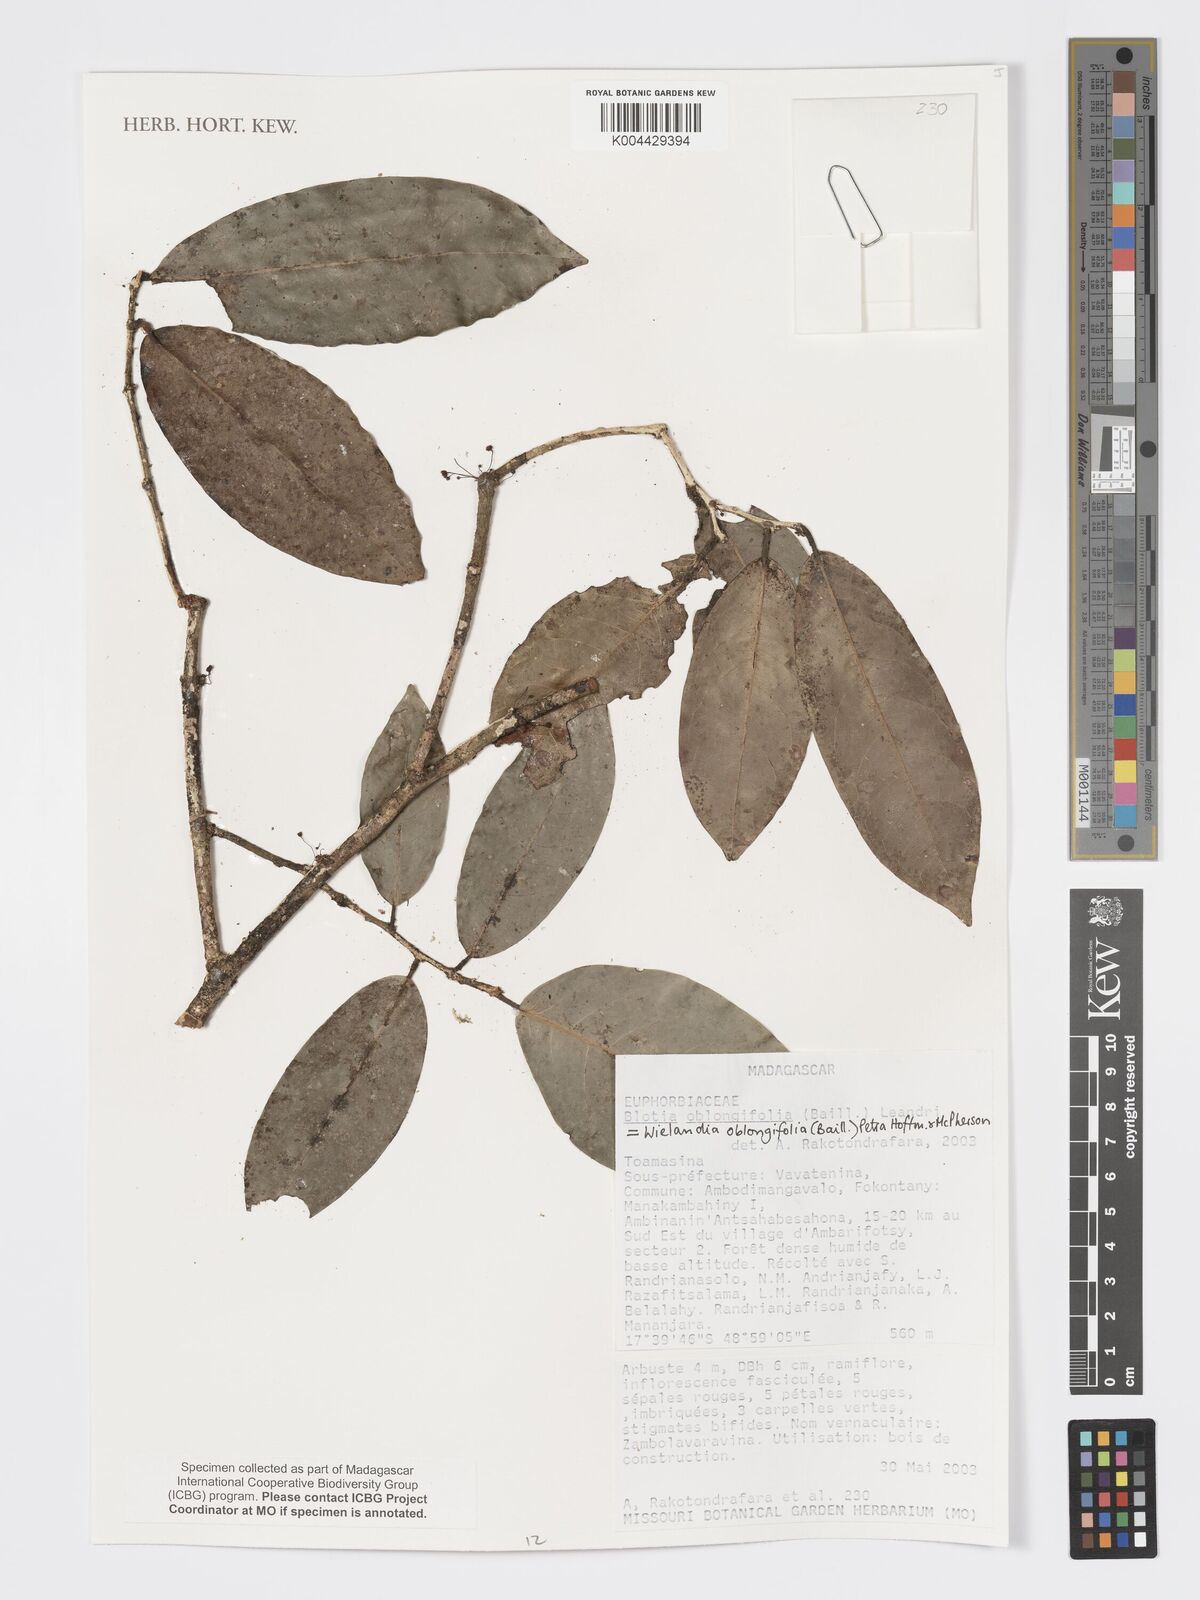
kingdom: Plantae
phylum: Tracheophyta
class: Magnoliopsida
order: Malpighiales
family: Phyllanthaceae
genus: Wielandia
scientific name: Wielandia oblongifolia
